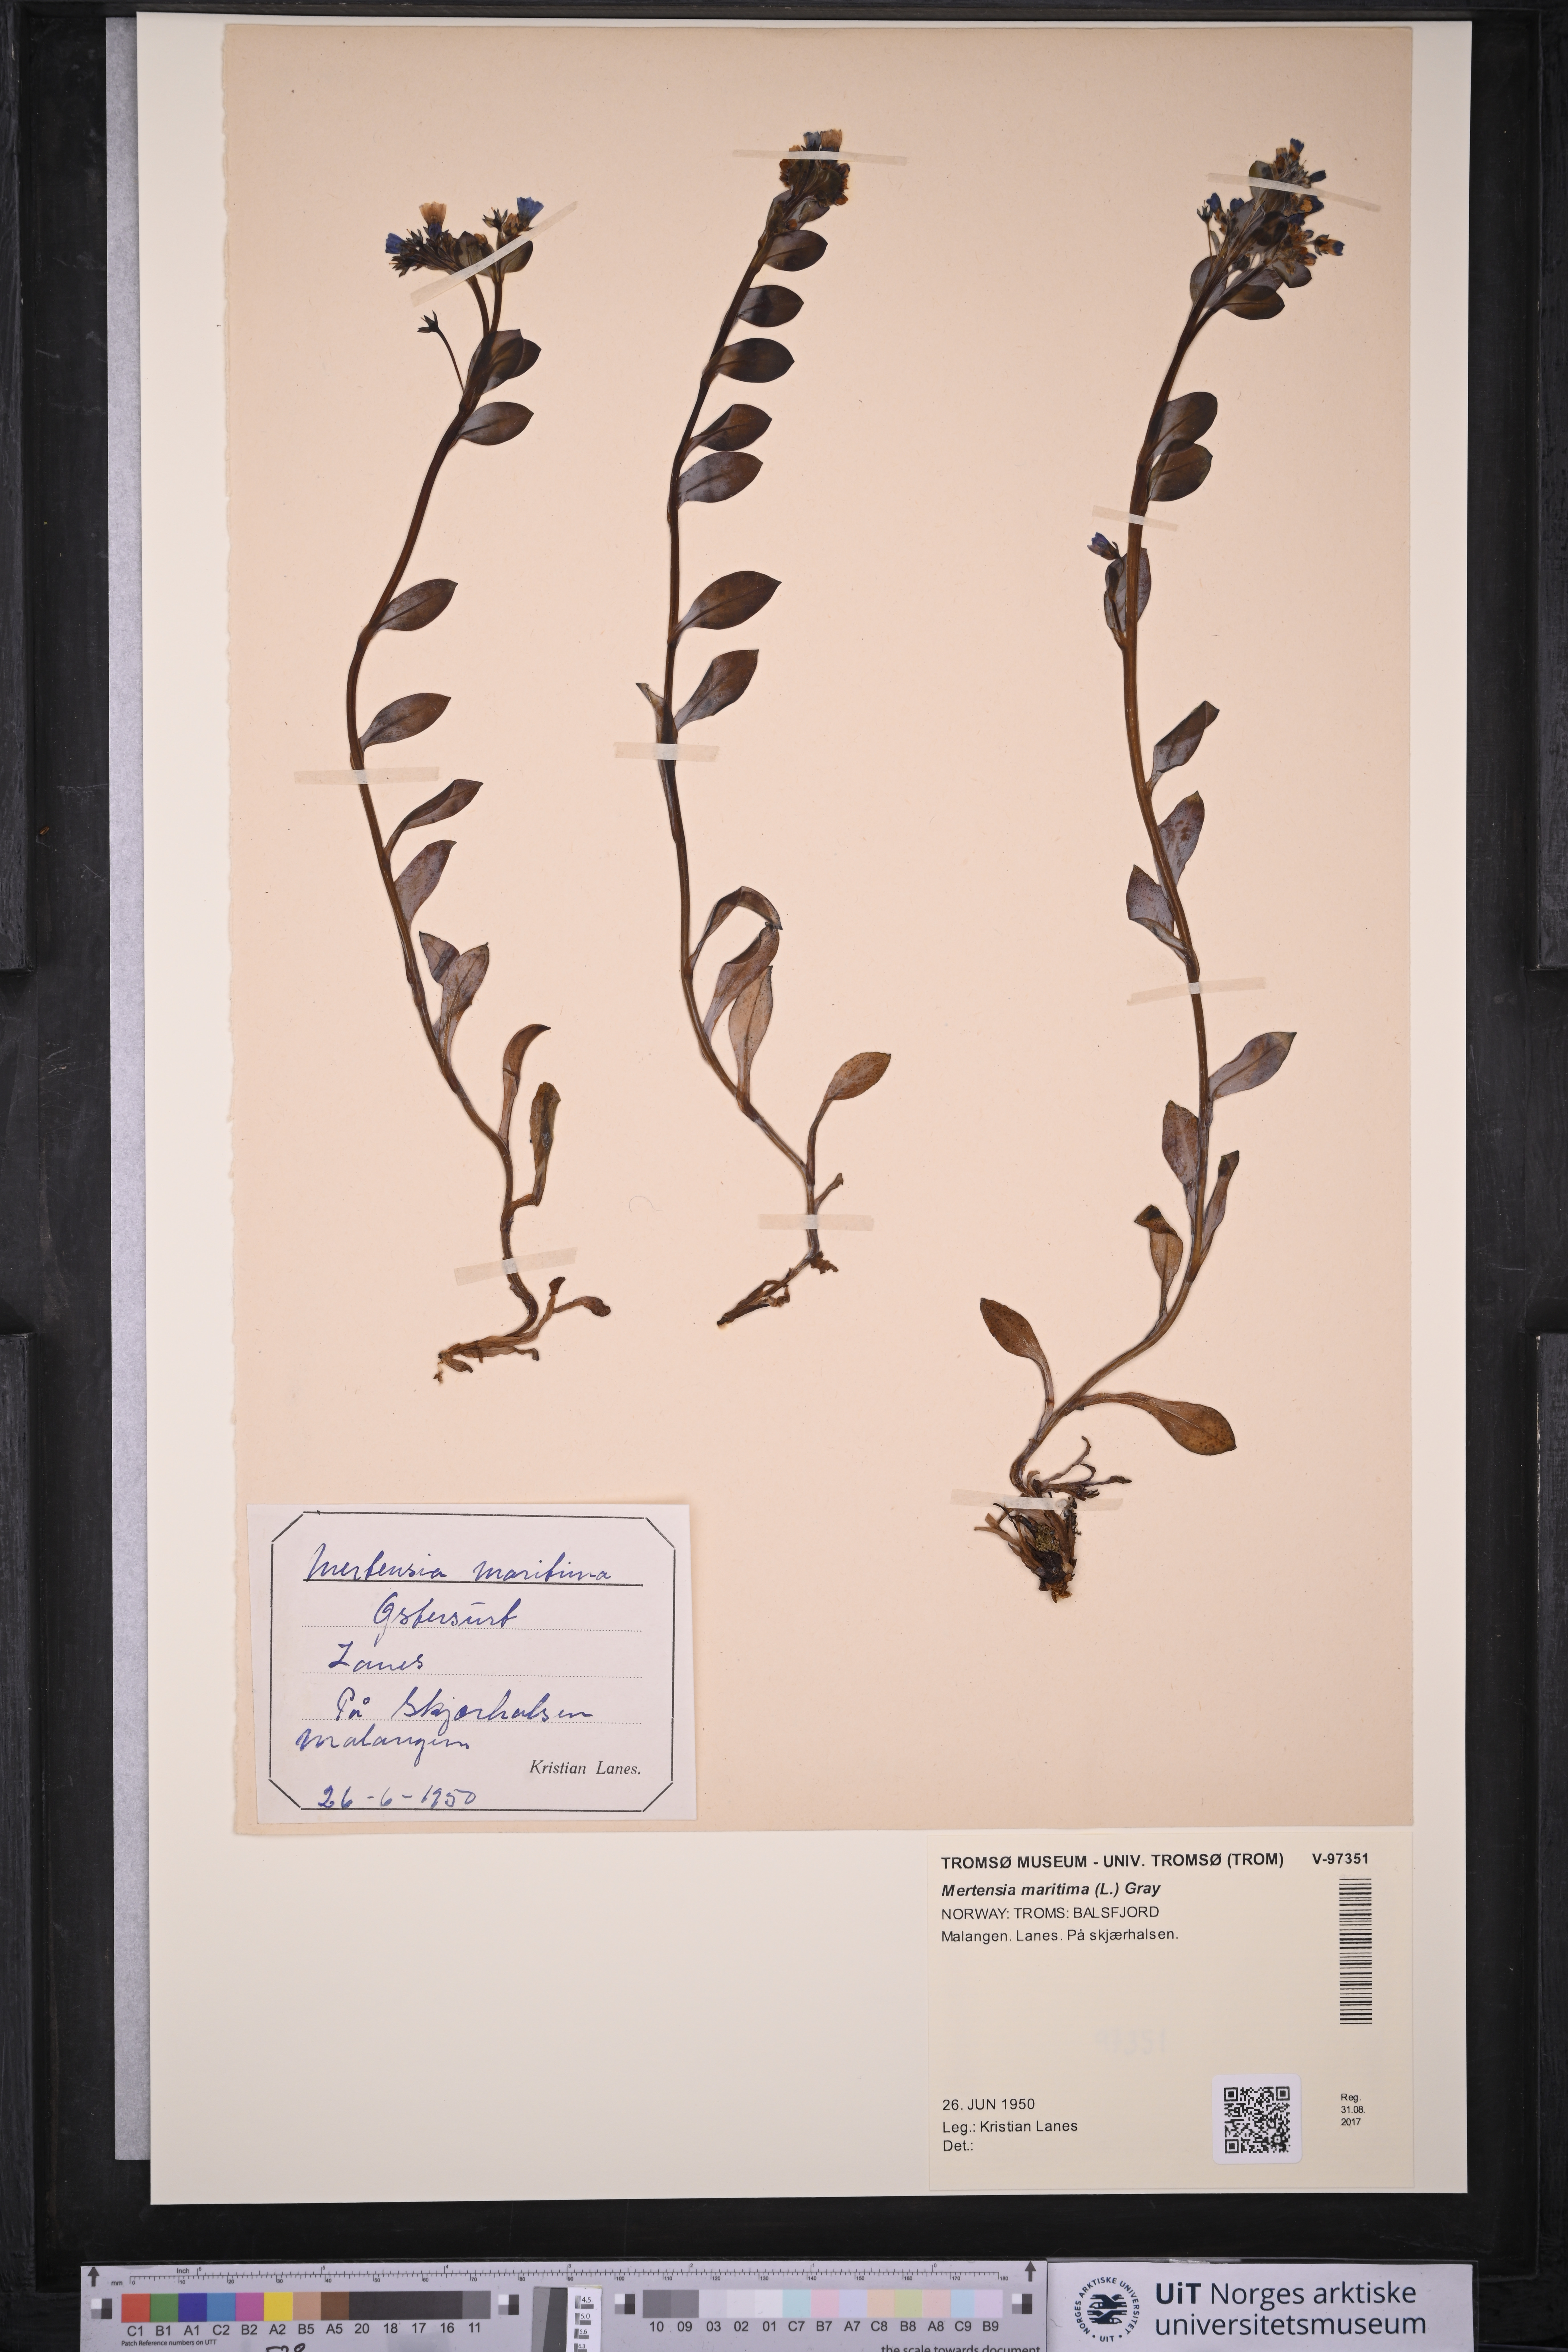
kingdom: Plantae
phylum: Tracheophyta
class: Magnoliopsida
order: Boraginales
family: Boraginaceae
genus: Mertensia
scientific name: Mertensia maritima
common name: Oysterplant
